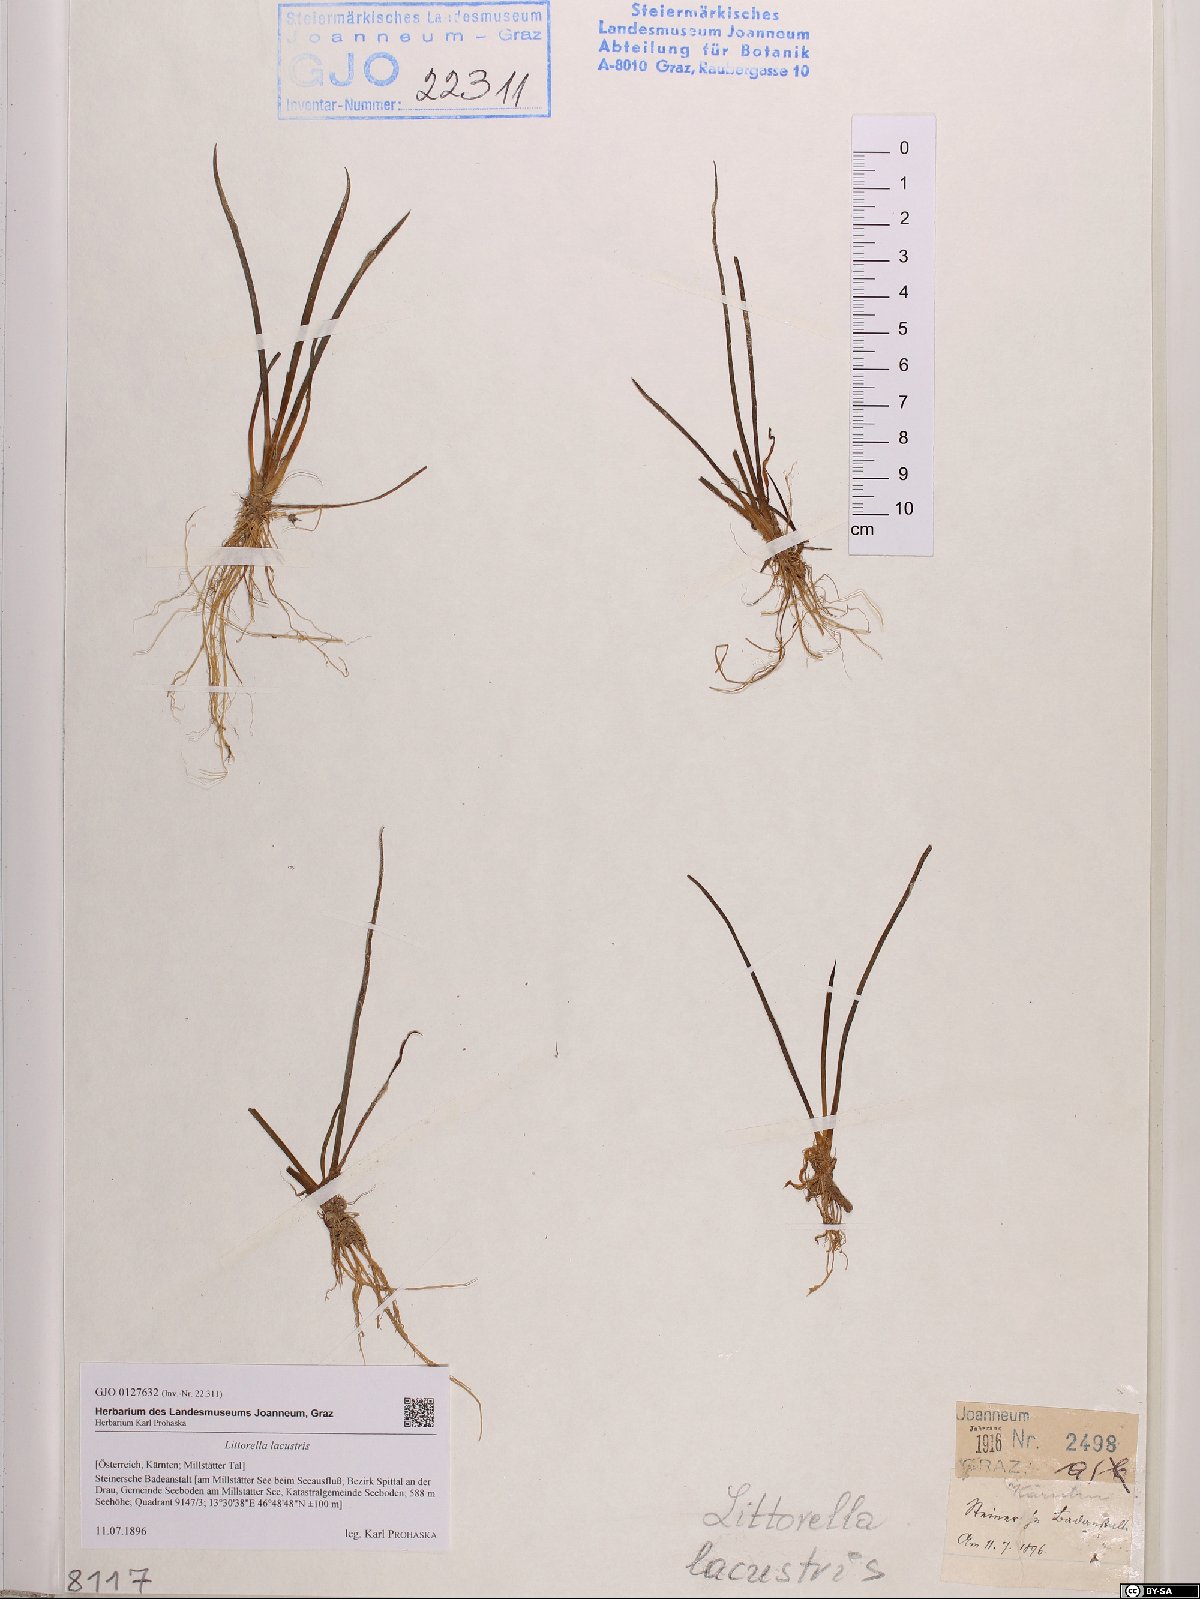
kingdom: Plantae
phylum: Tracheophyta
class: Magnoliopsida
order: Lamiales
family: Plantaginaceae
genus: Littorella
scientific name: Littorella uniflora
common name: Shoreweed
